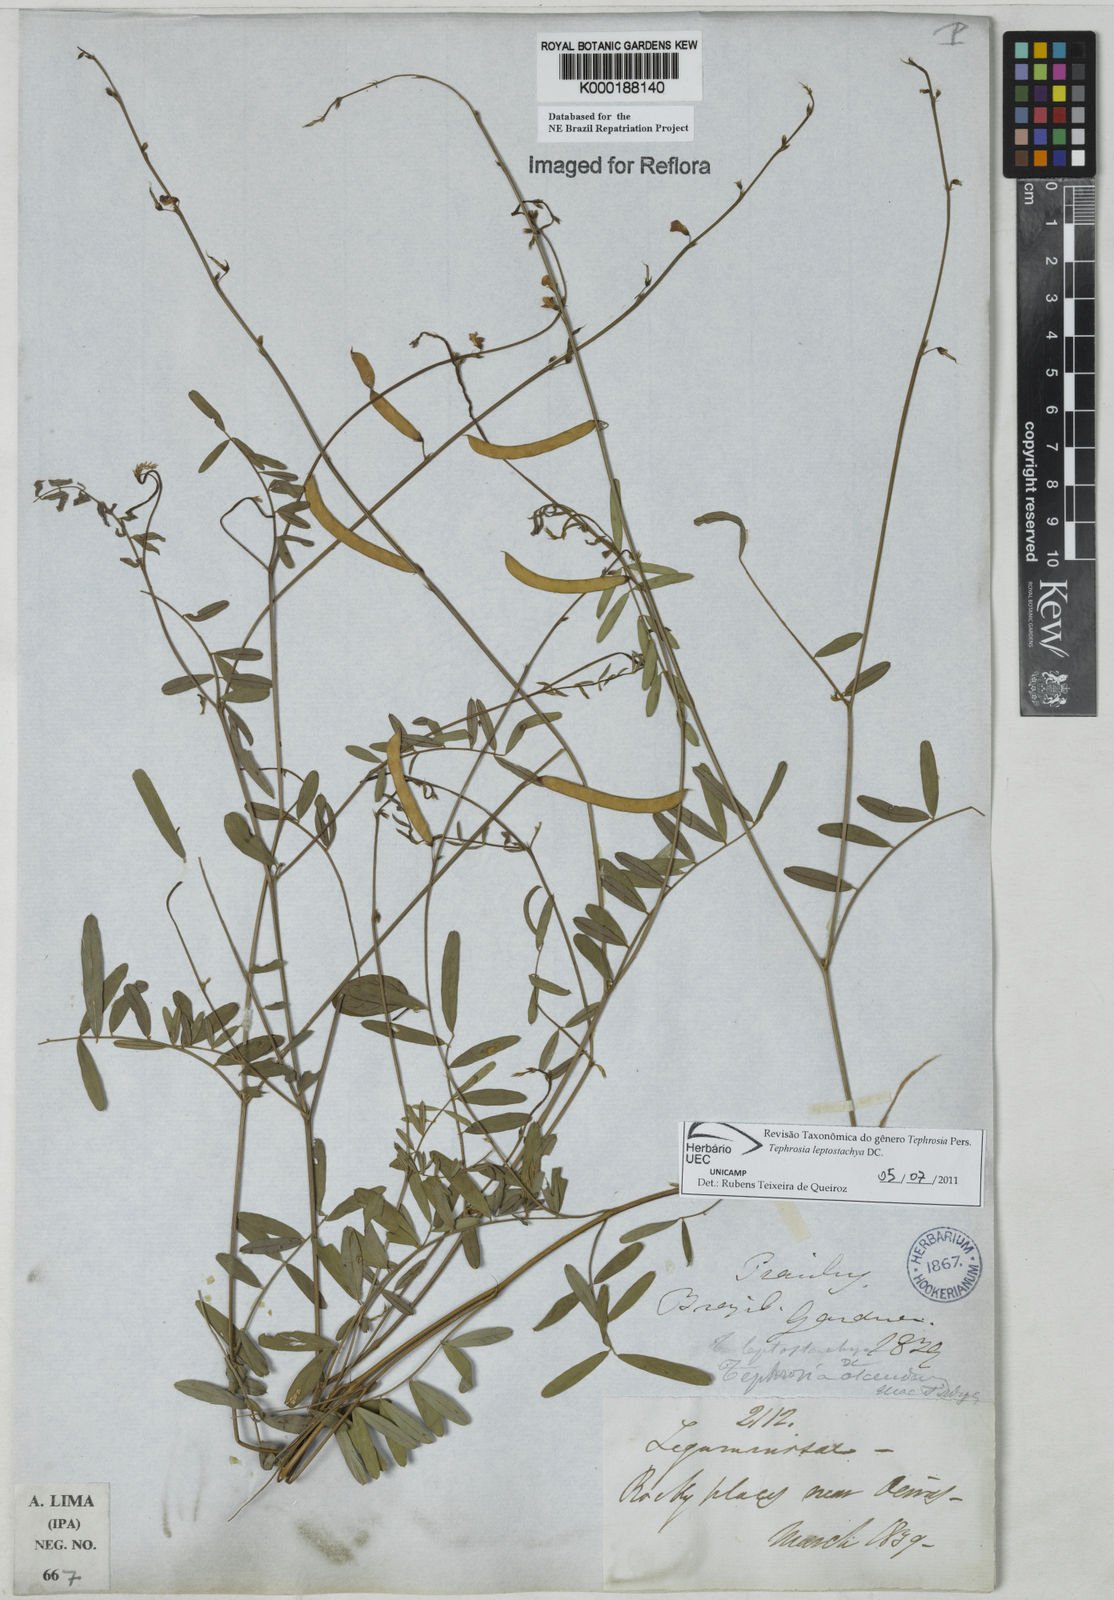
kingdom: Plantae
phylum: Tracheophyta
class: Magnoliopsida
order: Fabales
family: Fabaceae
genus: Tephrosia
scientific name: Tephrosia purpurea
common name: Fishpoison
